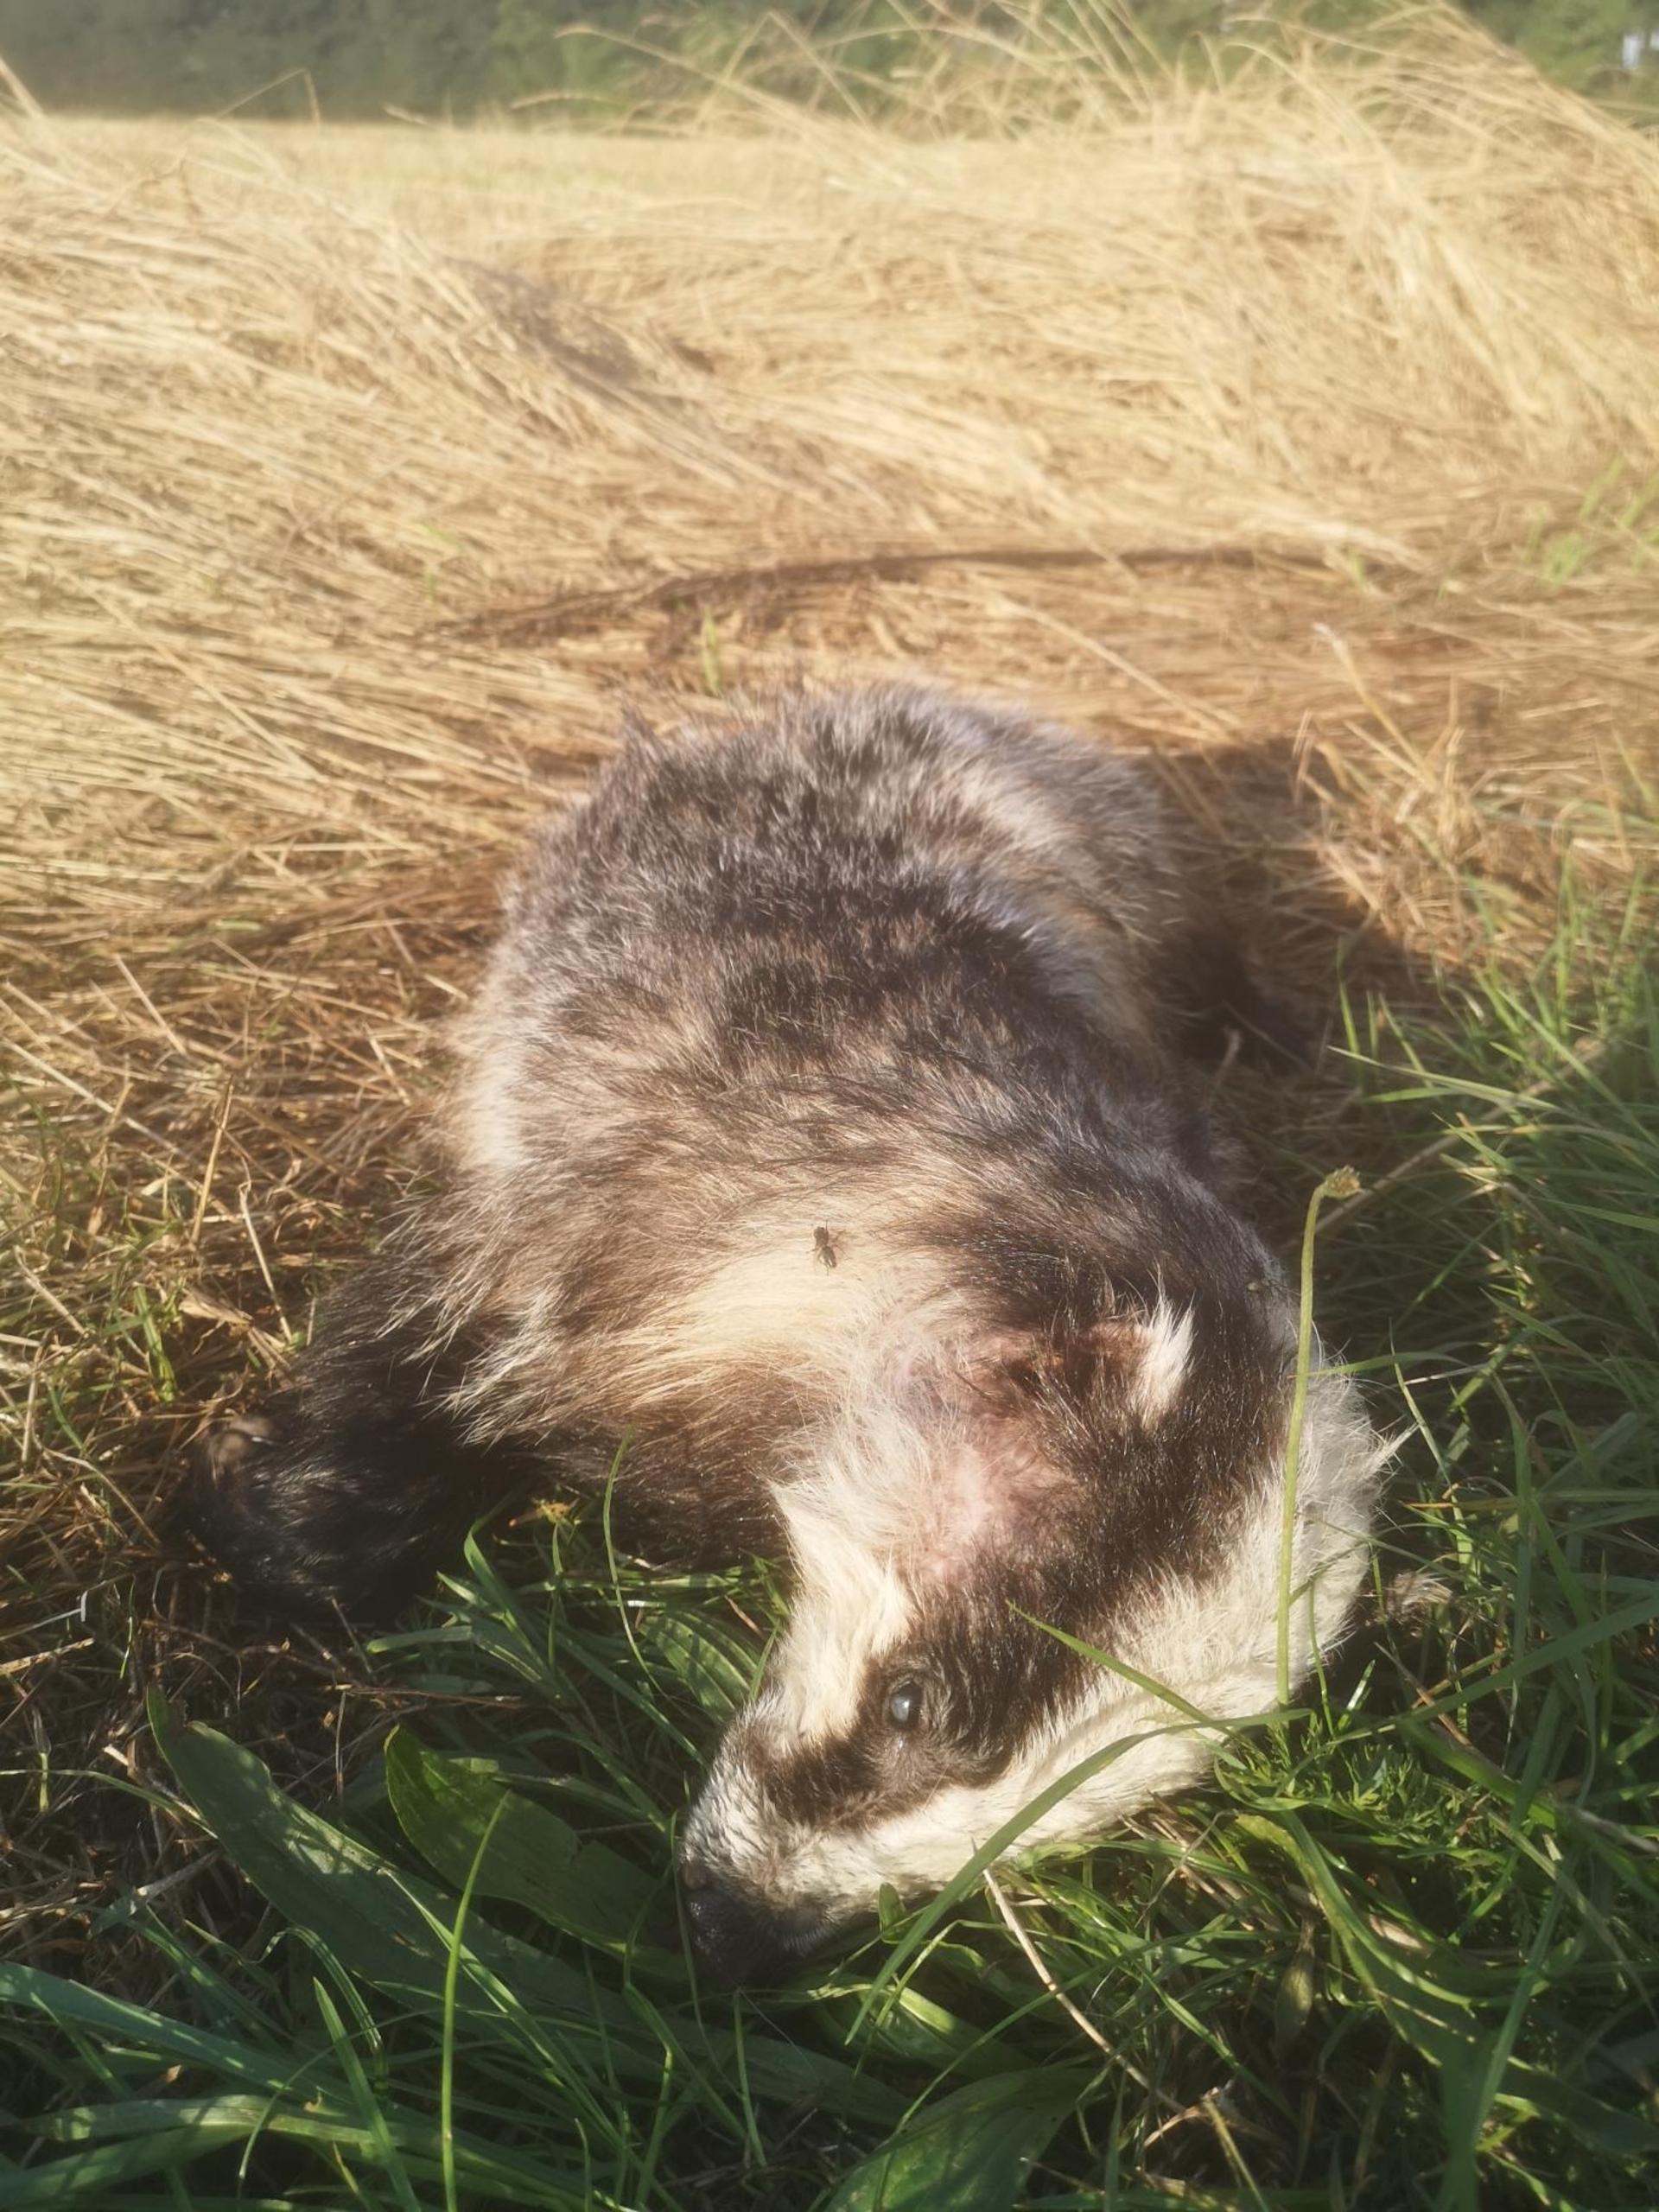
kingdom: Animalia
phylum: Chordata
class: Mammalia
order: Carnivora
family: Mustelidae
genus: Meles
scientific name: Meles meles
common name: Grævling
